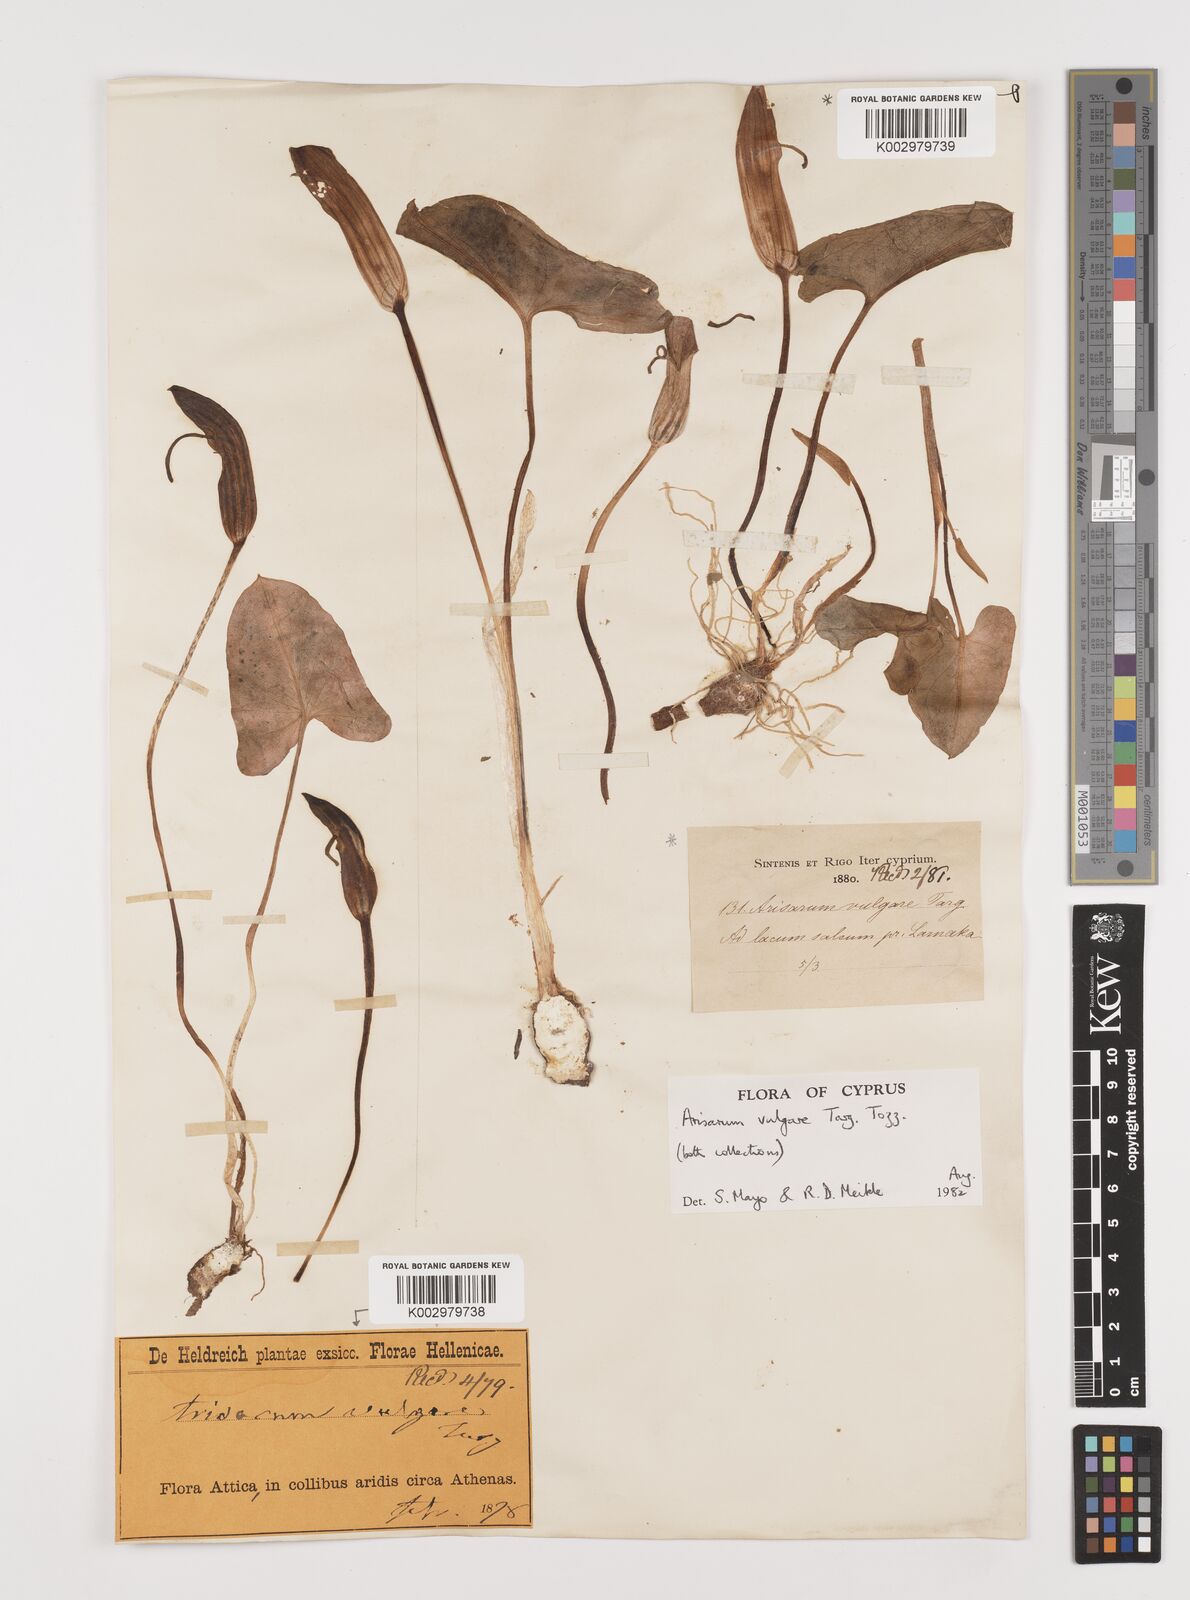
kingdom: Plantae
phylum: Tracheophyta
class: Liliopsida
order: Alismatales
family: Araceae
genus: Arisarum
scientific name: Arisarum vulgare
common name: Common arisarum
